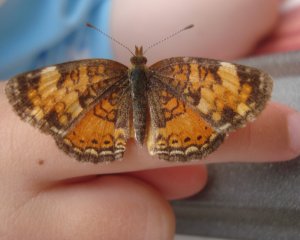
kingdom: Animalia
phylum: Arthropoda
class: Insecta
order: Lepidoptera
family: Nymphalidae
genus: Phyciodes
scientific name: Phyciodes tharos
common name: Northern Crescent
